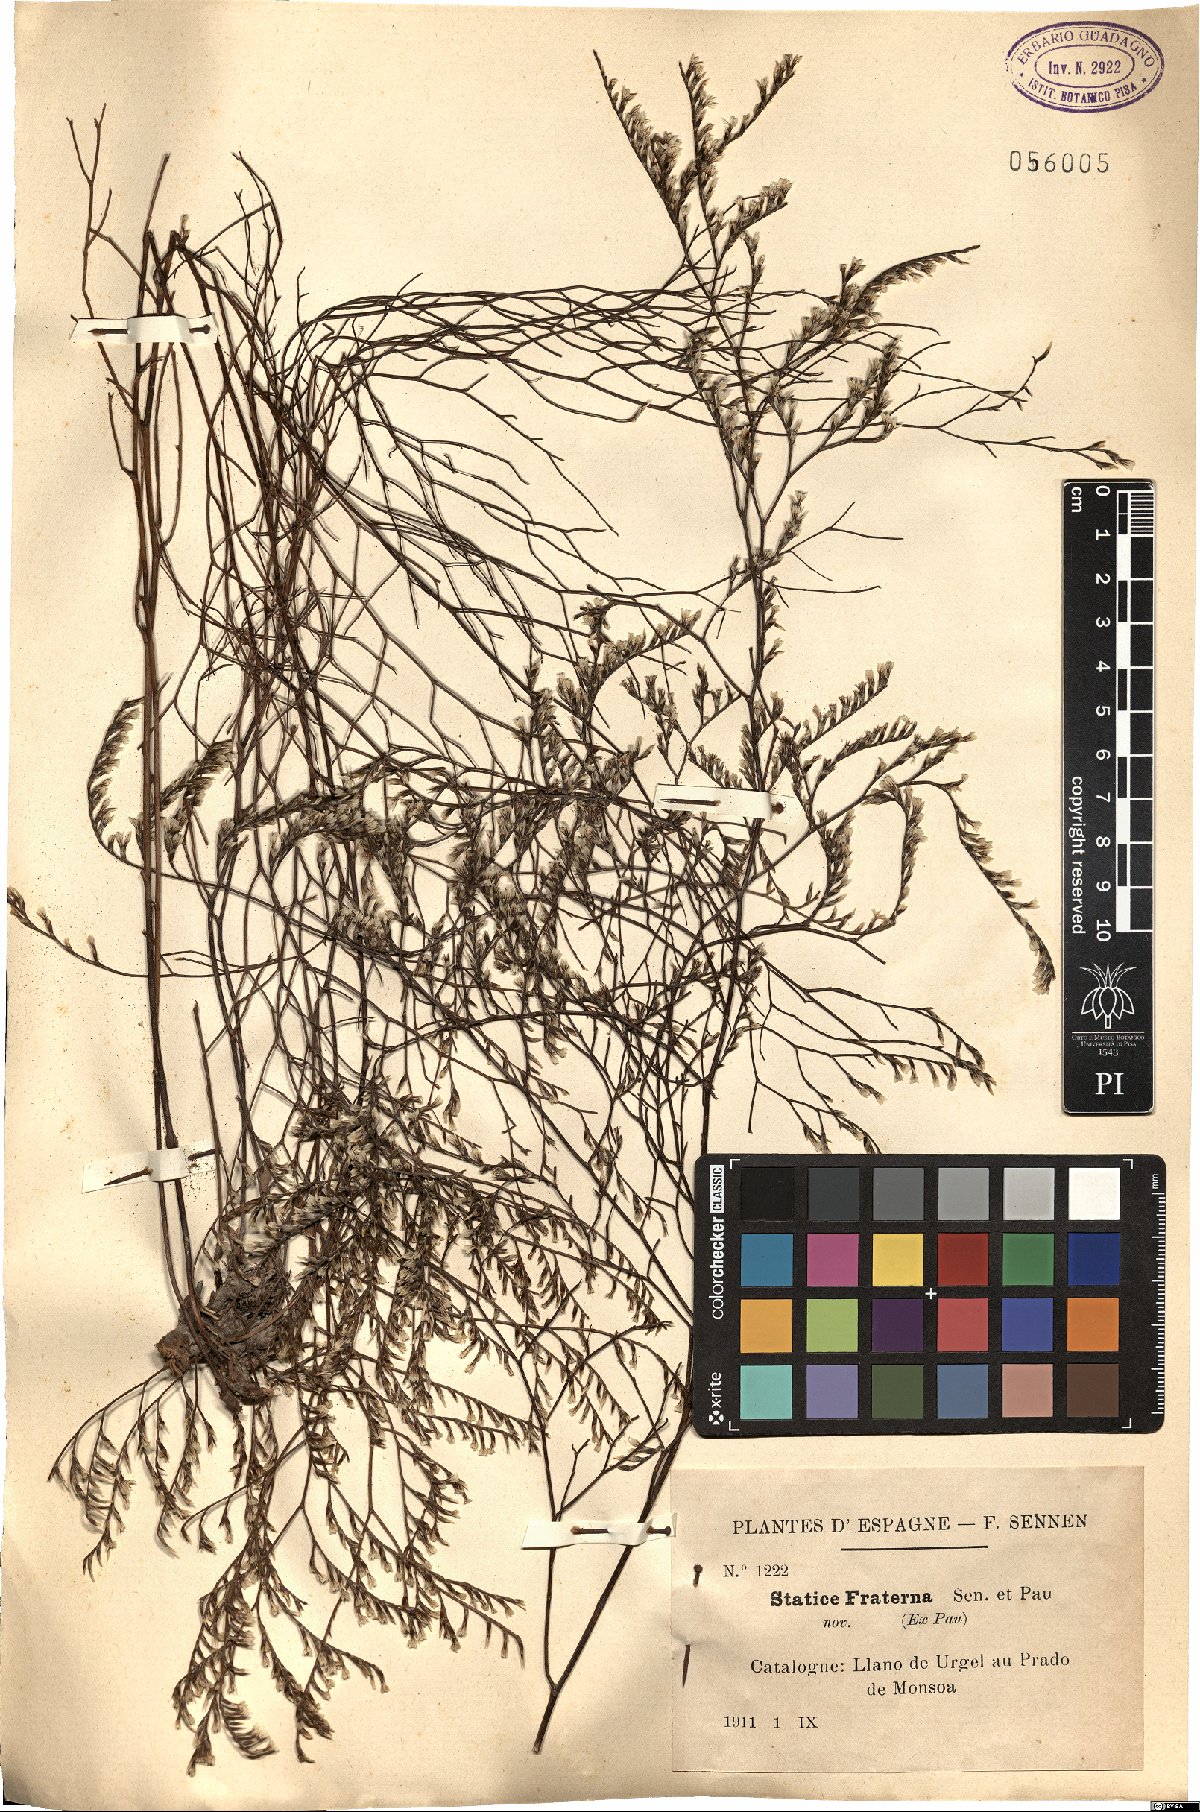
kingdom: Plantae
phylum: Tracheophyta
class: Magnoliopsida
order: Caryophyllales
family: Plumbaginaceae
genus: Limonium
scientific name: Limonium viciosoi
